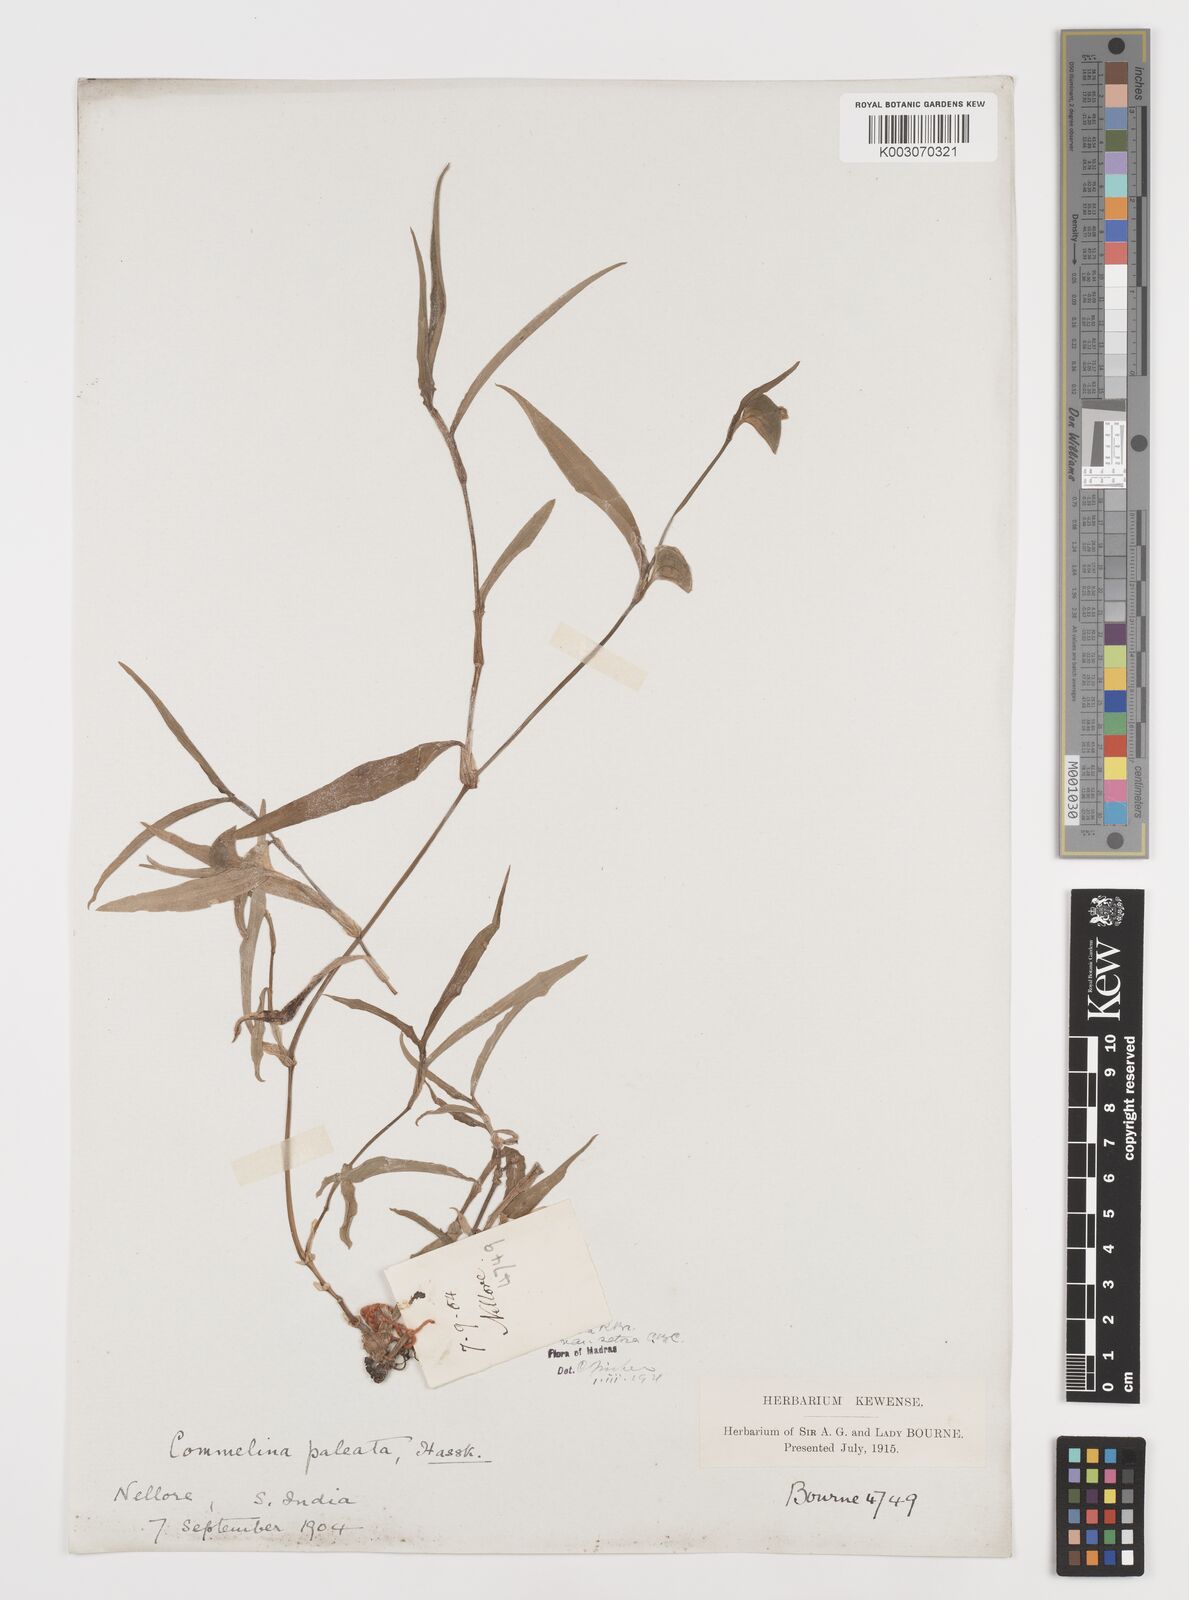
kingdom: Plantae
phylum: Tracheophyta
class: Liliopsida
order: Commelinales
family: Commelinaceae
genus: Commelina
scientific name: Commelina chamissonis
